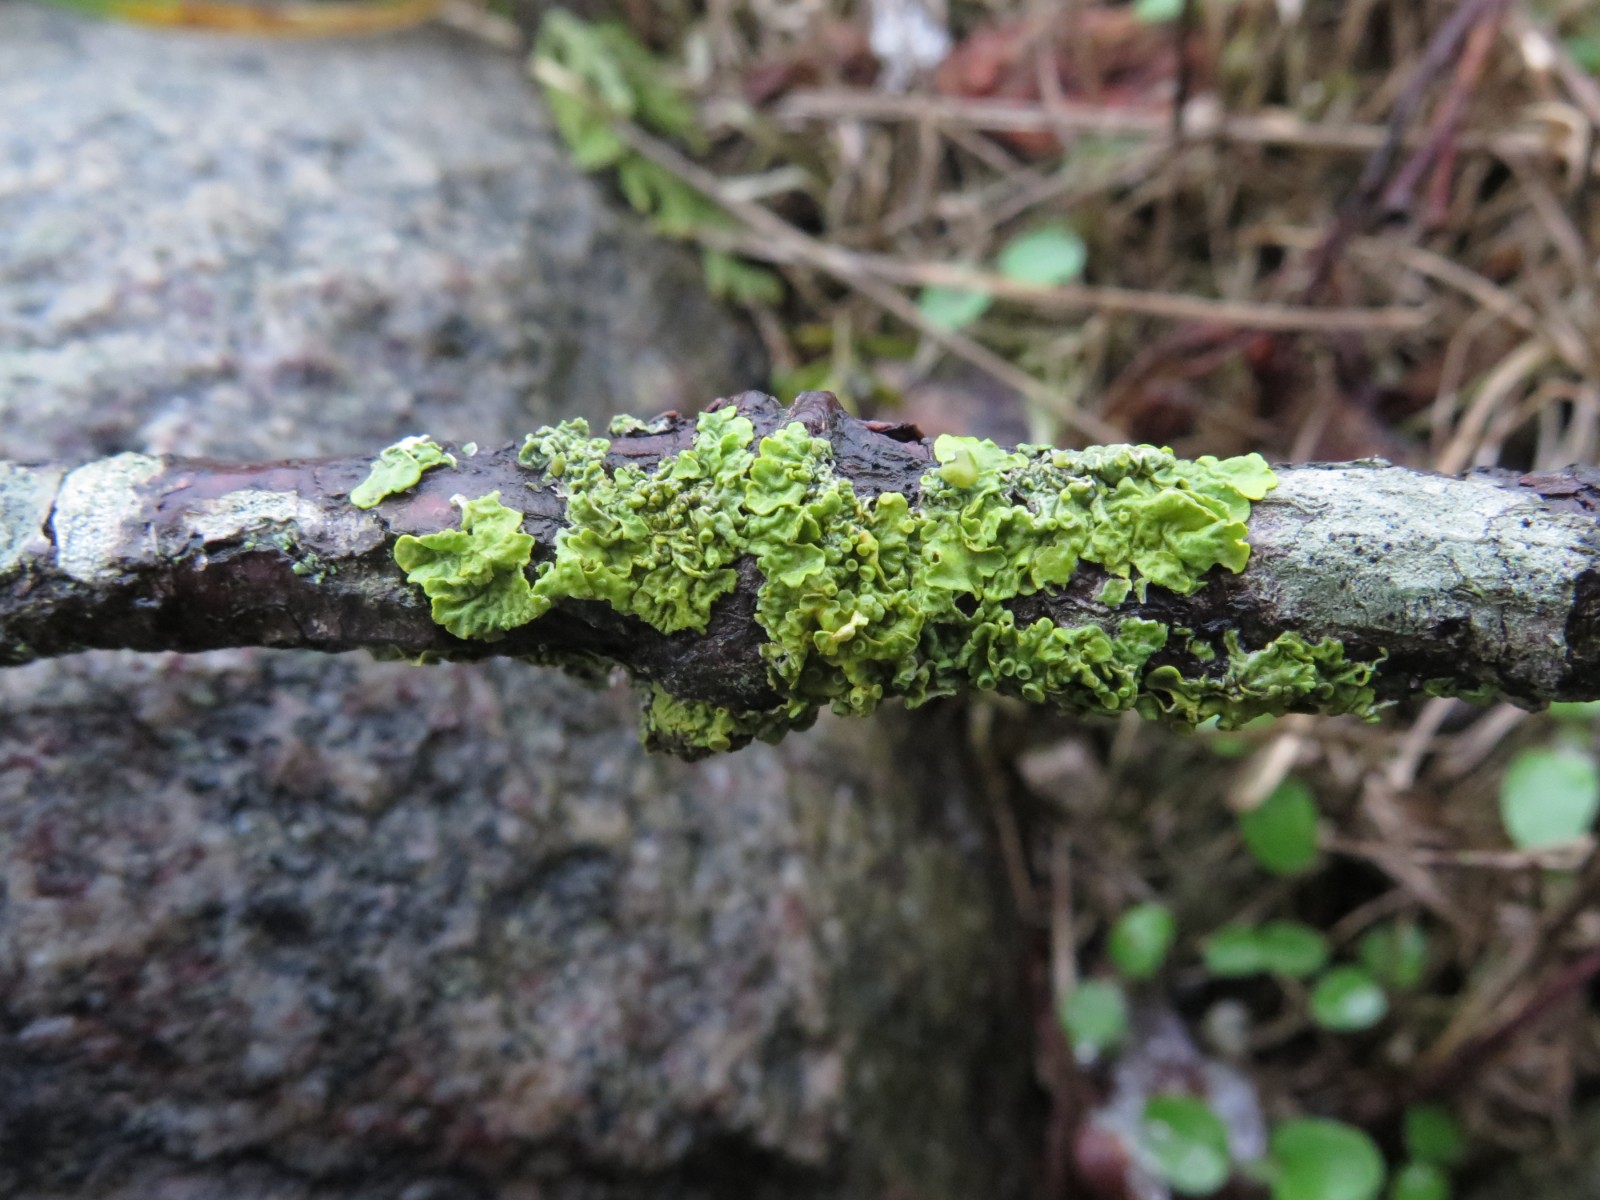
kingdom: Fungi
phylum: Ascomycota
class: Lecanoromycetes
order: Teloschistales
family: Teloschistaceae
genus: Xanthoria
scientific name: Xanthoria parietina
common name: almindelig væggelav
